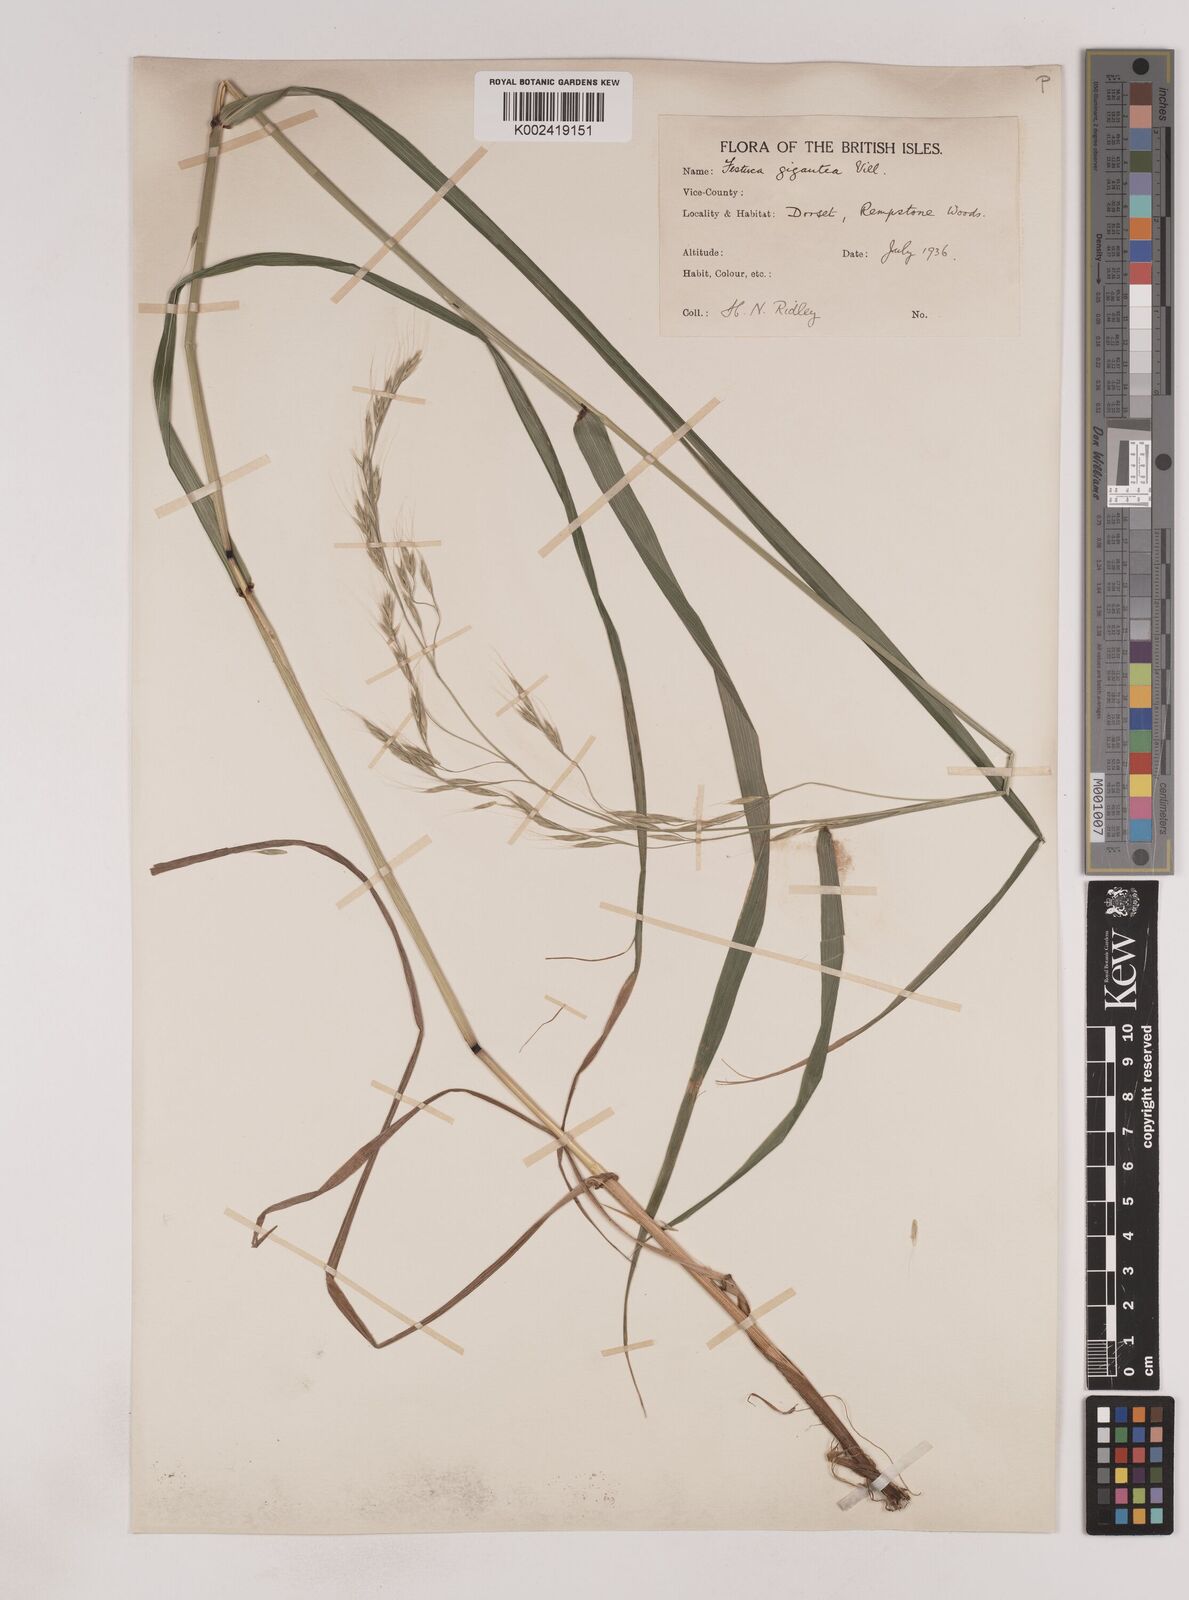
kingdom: Plantae
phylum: Tracheophyta
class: Liliopsida
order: Poales
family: Poaceae
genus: Lolium
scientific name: Lolium giganteum
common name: Giant fescue
